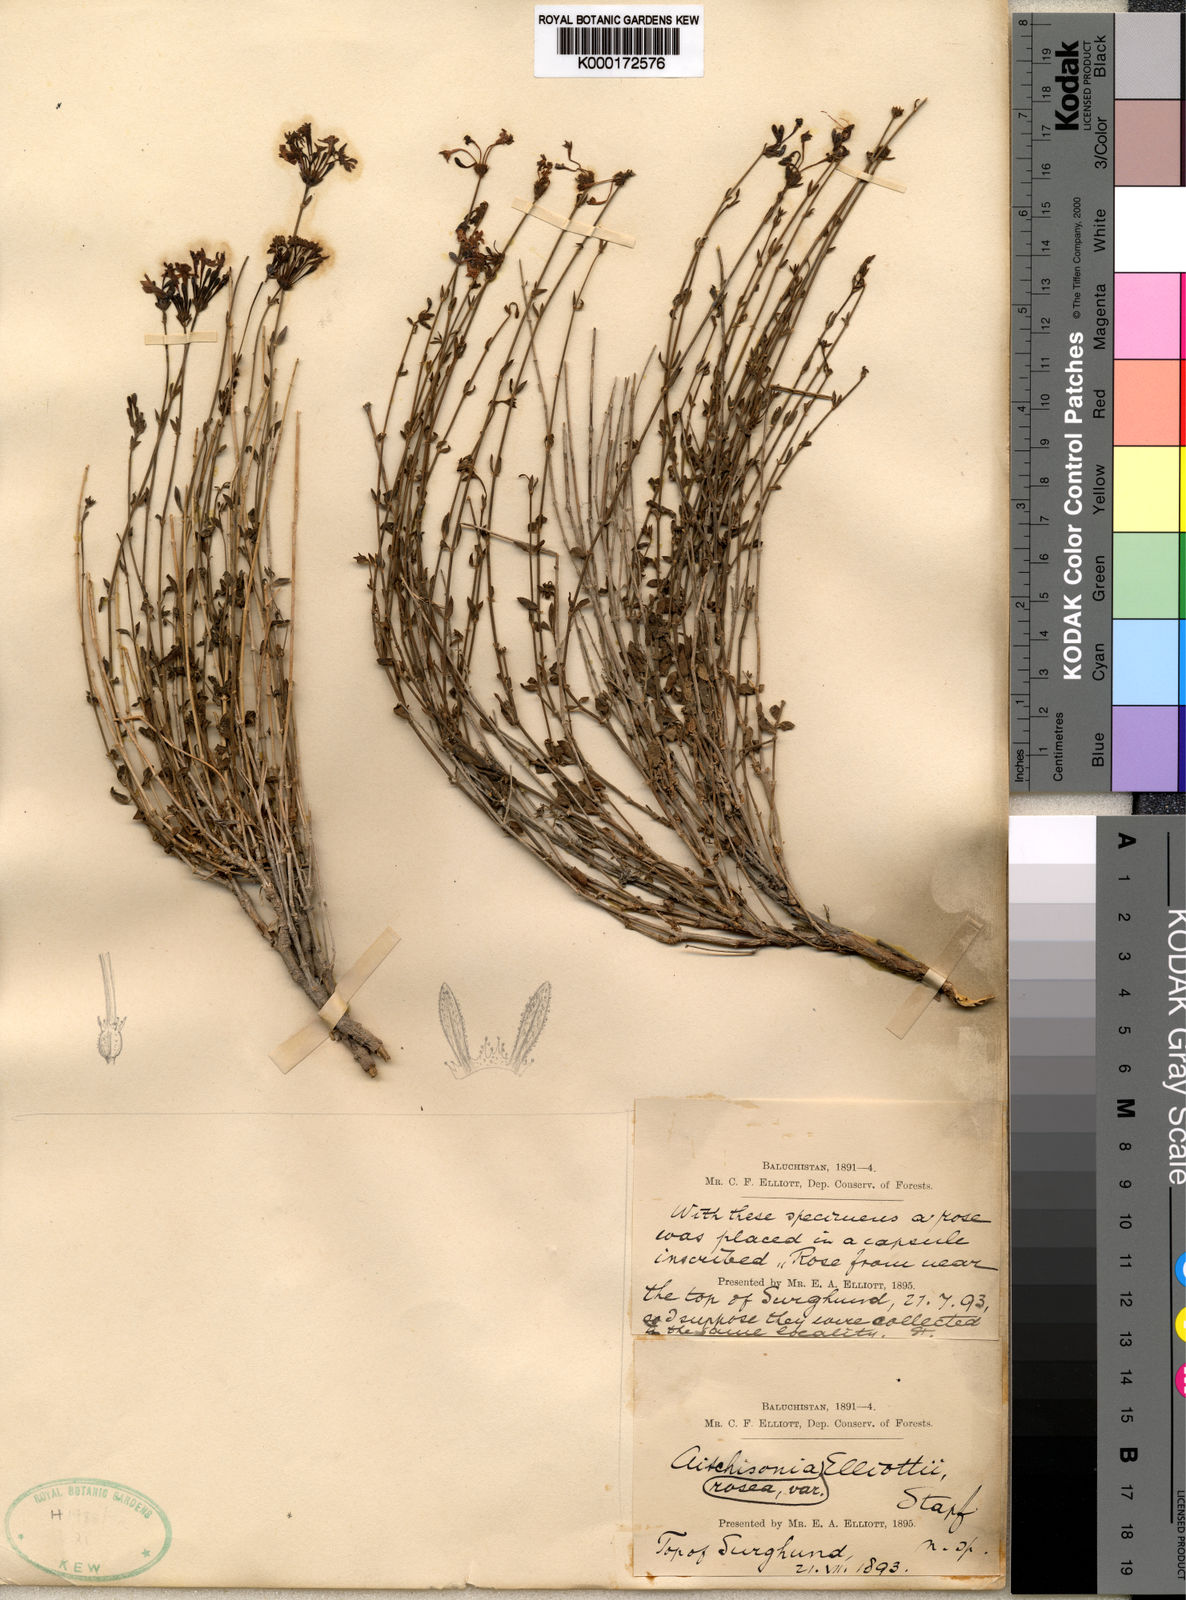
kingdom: Plantae
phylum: Tracheophyta
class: Magnoliopsida
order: Gentianales
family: Rubiaceae
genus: Aitchisonia
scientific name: Aitchisonia rosea
